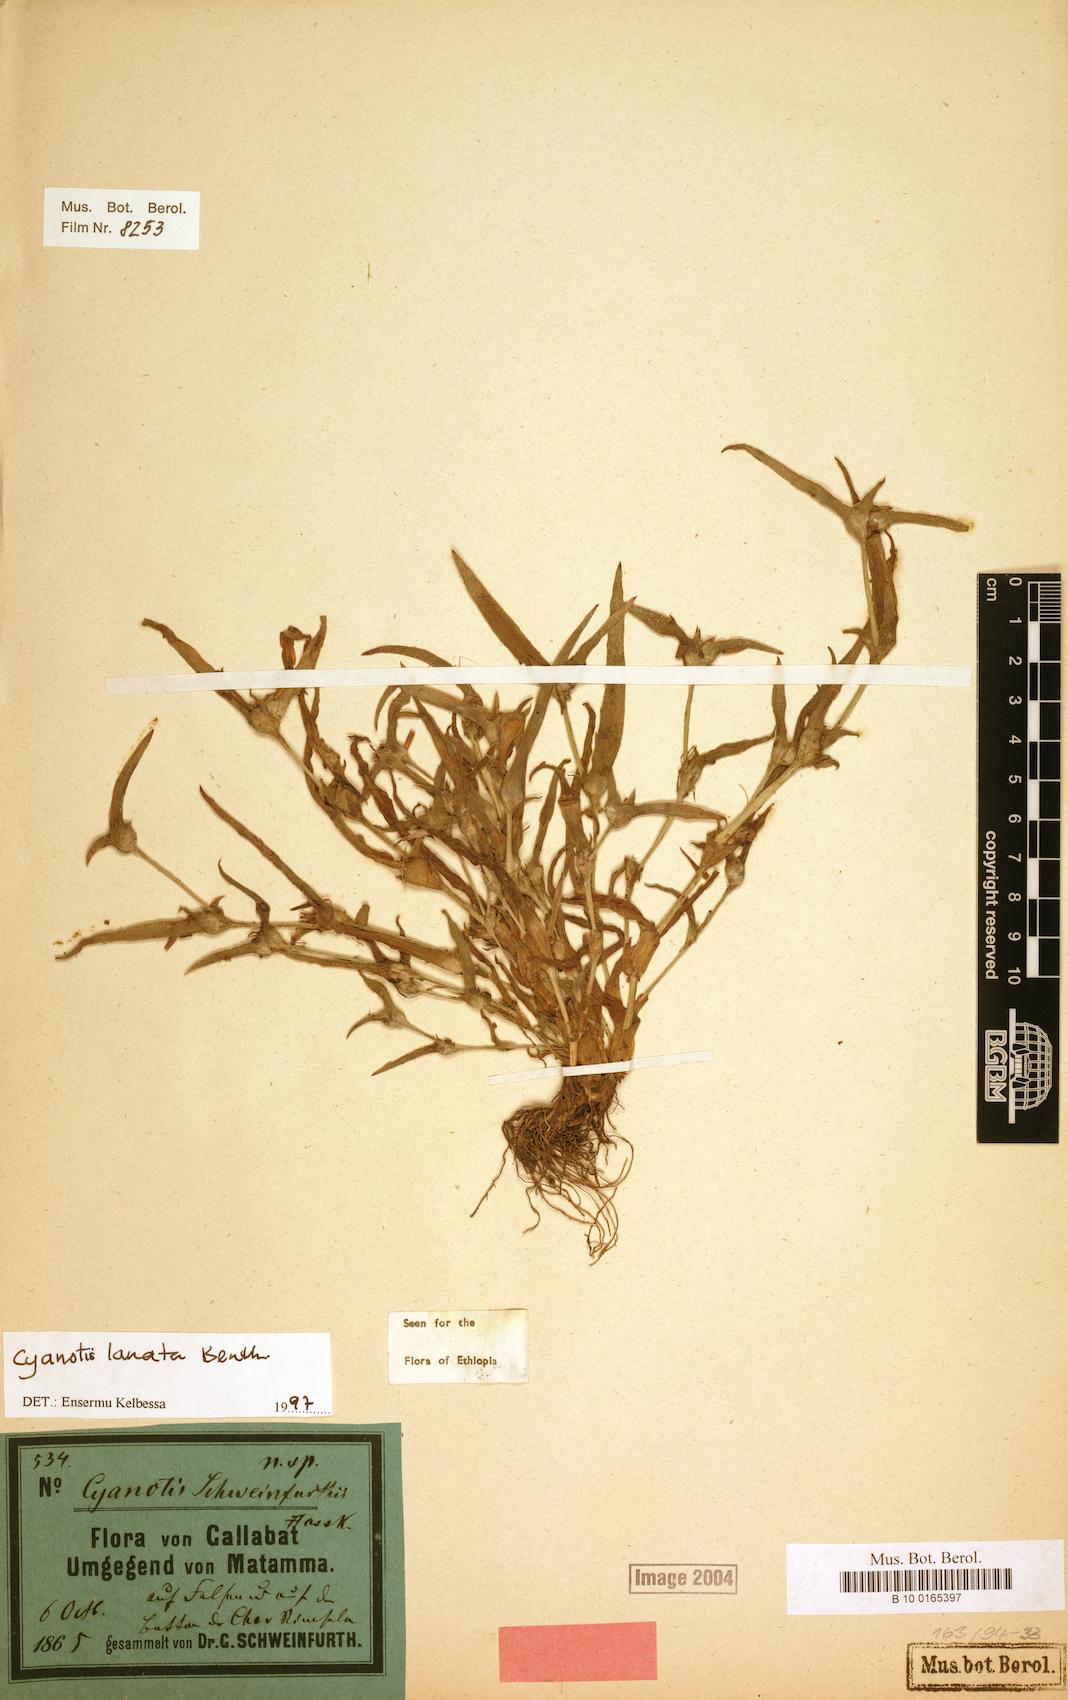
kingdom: Plantae
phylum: Tracheophyta
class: Liliopsida
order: Commelinales
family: Commelinaceae
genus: Cyanotis
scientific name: Cyanotis lanata
